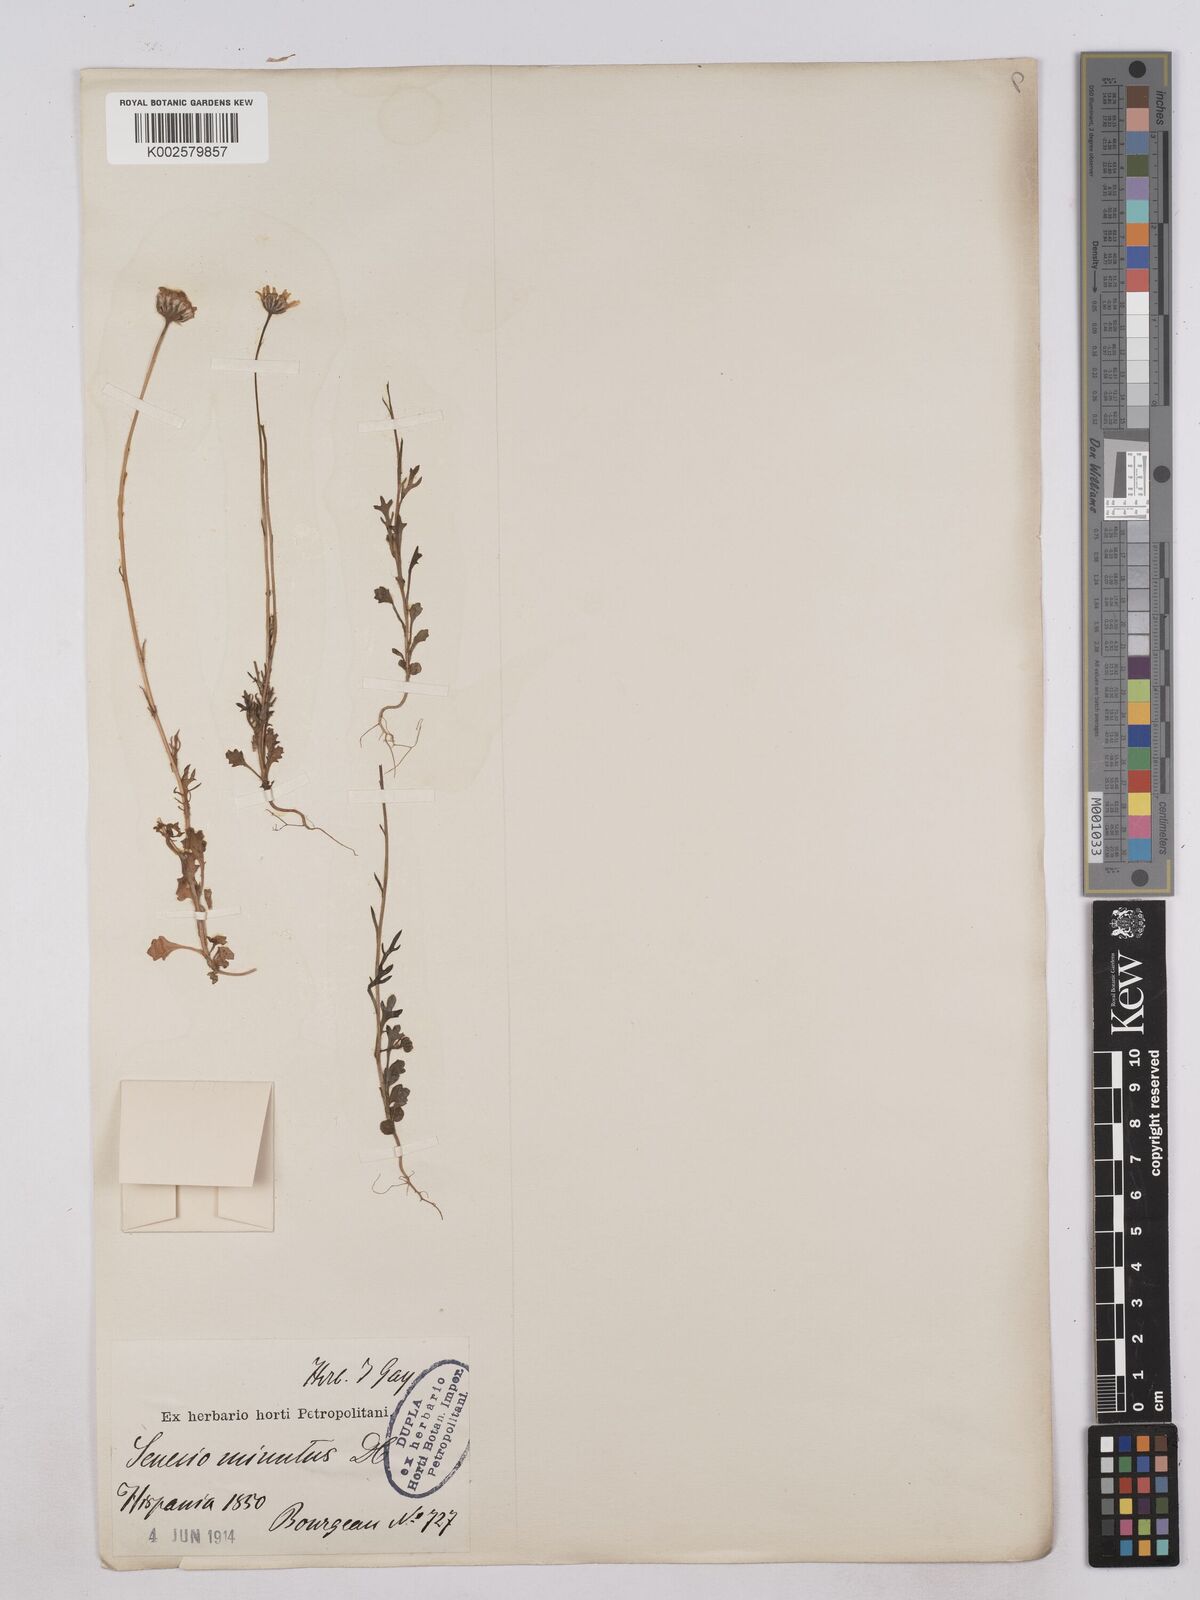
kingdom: Plantae
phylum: Tracheophyta
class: Magnoliopsida
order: Asterales
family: Asteraceae
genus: Jacobaea
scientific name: Jacobaea minuta
